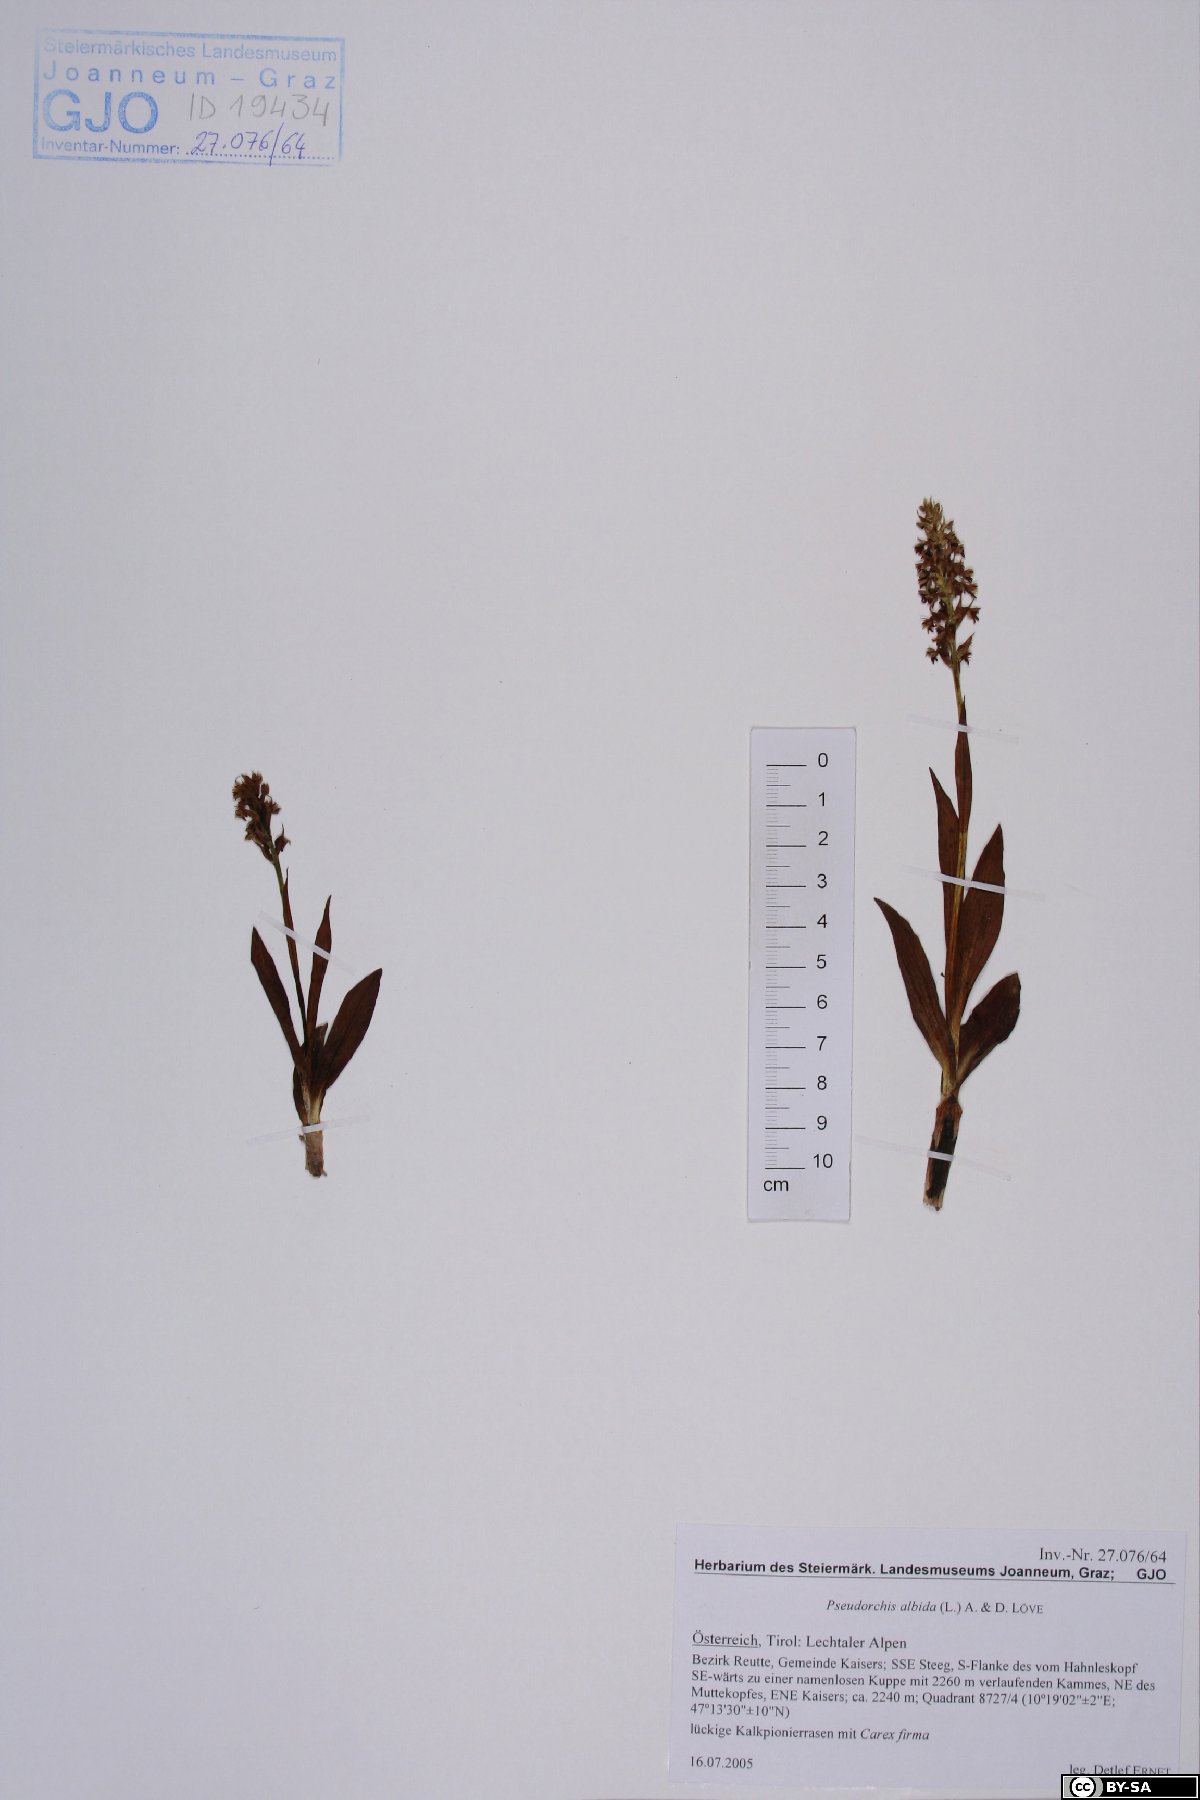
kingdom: Plantae
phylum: Tracheophyta
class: Liliopsida
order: Asparagales
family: Orchidaceae
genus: Pseudorchis
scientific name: Pseudorchis albida
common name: Small-white orchid
